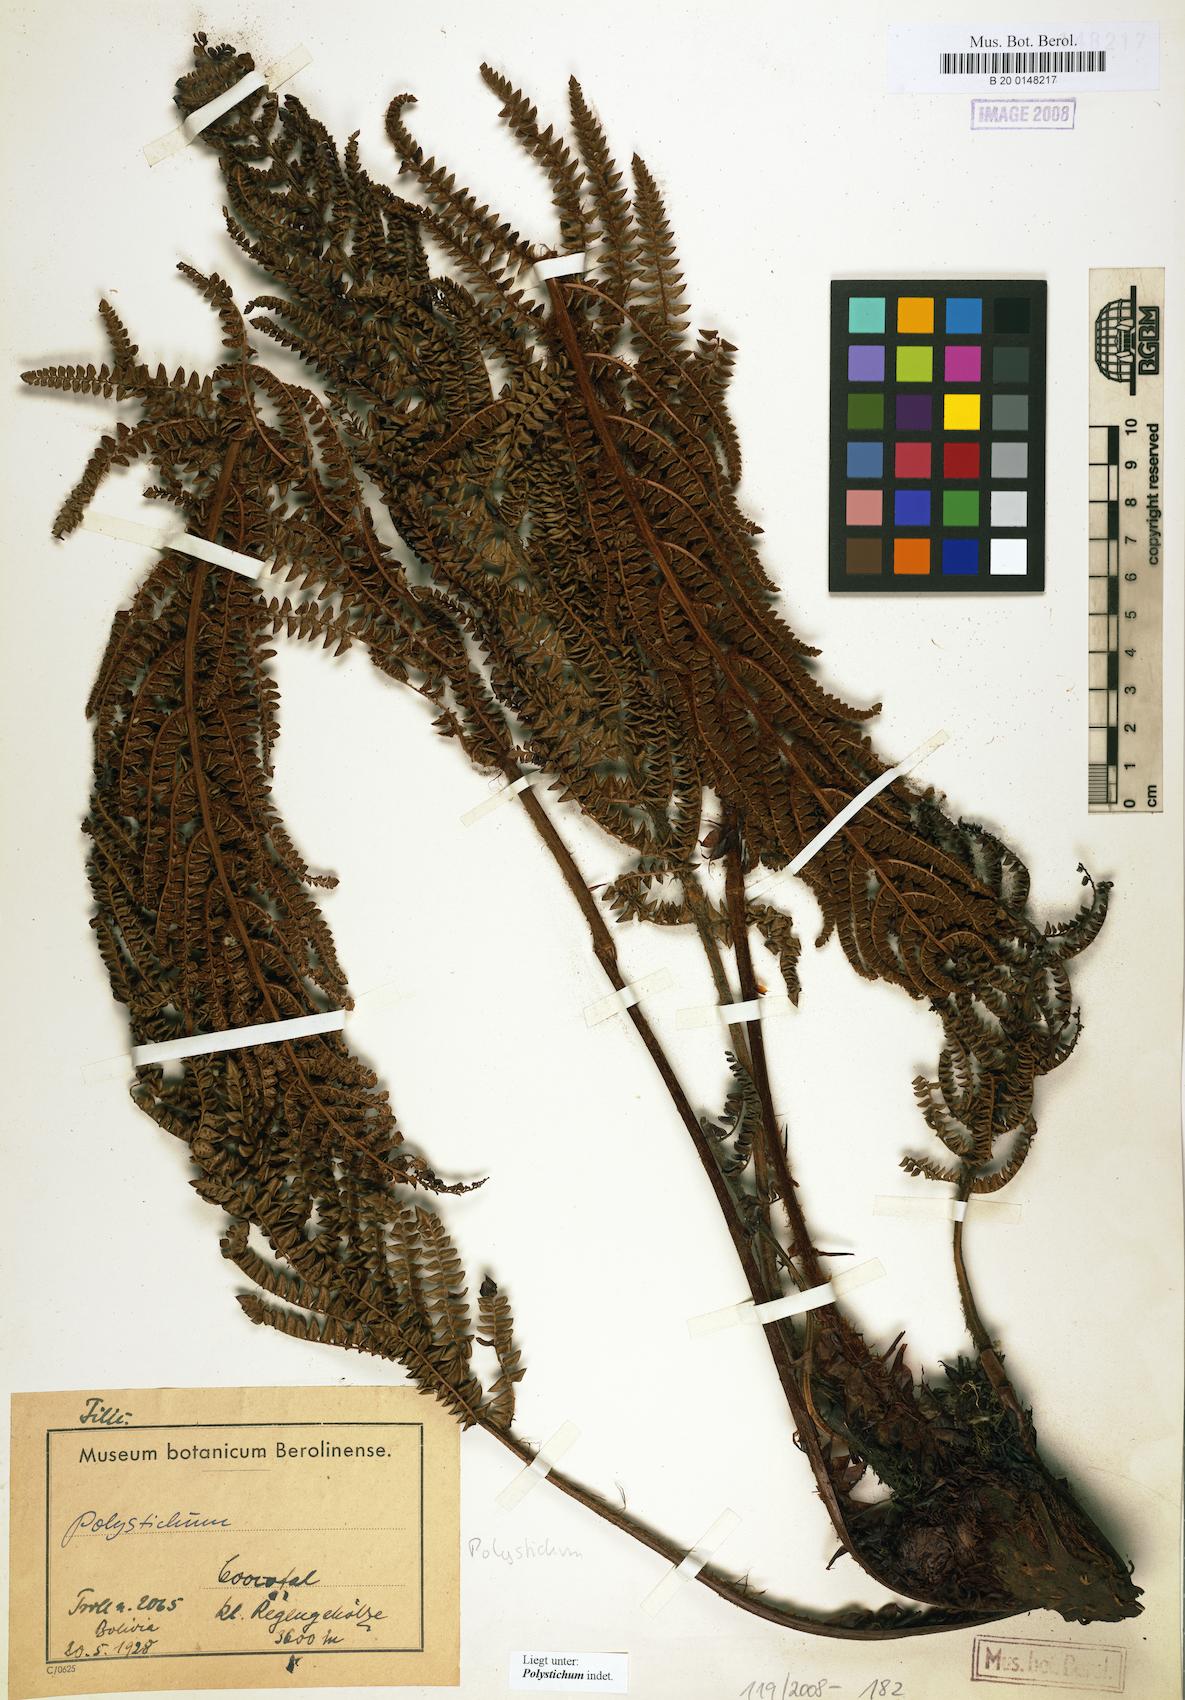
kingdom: Plantae
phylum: Tracheophyta
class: Polypodiopsida
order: Polypodiales
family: Dryopteridaceae
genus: Polystichum
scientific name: Polystichum
